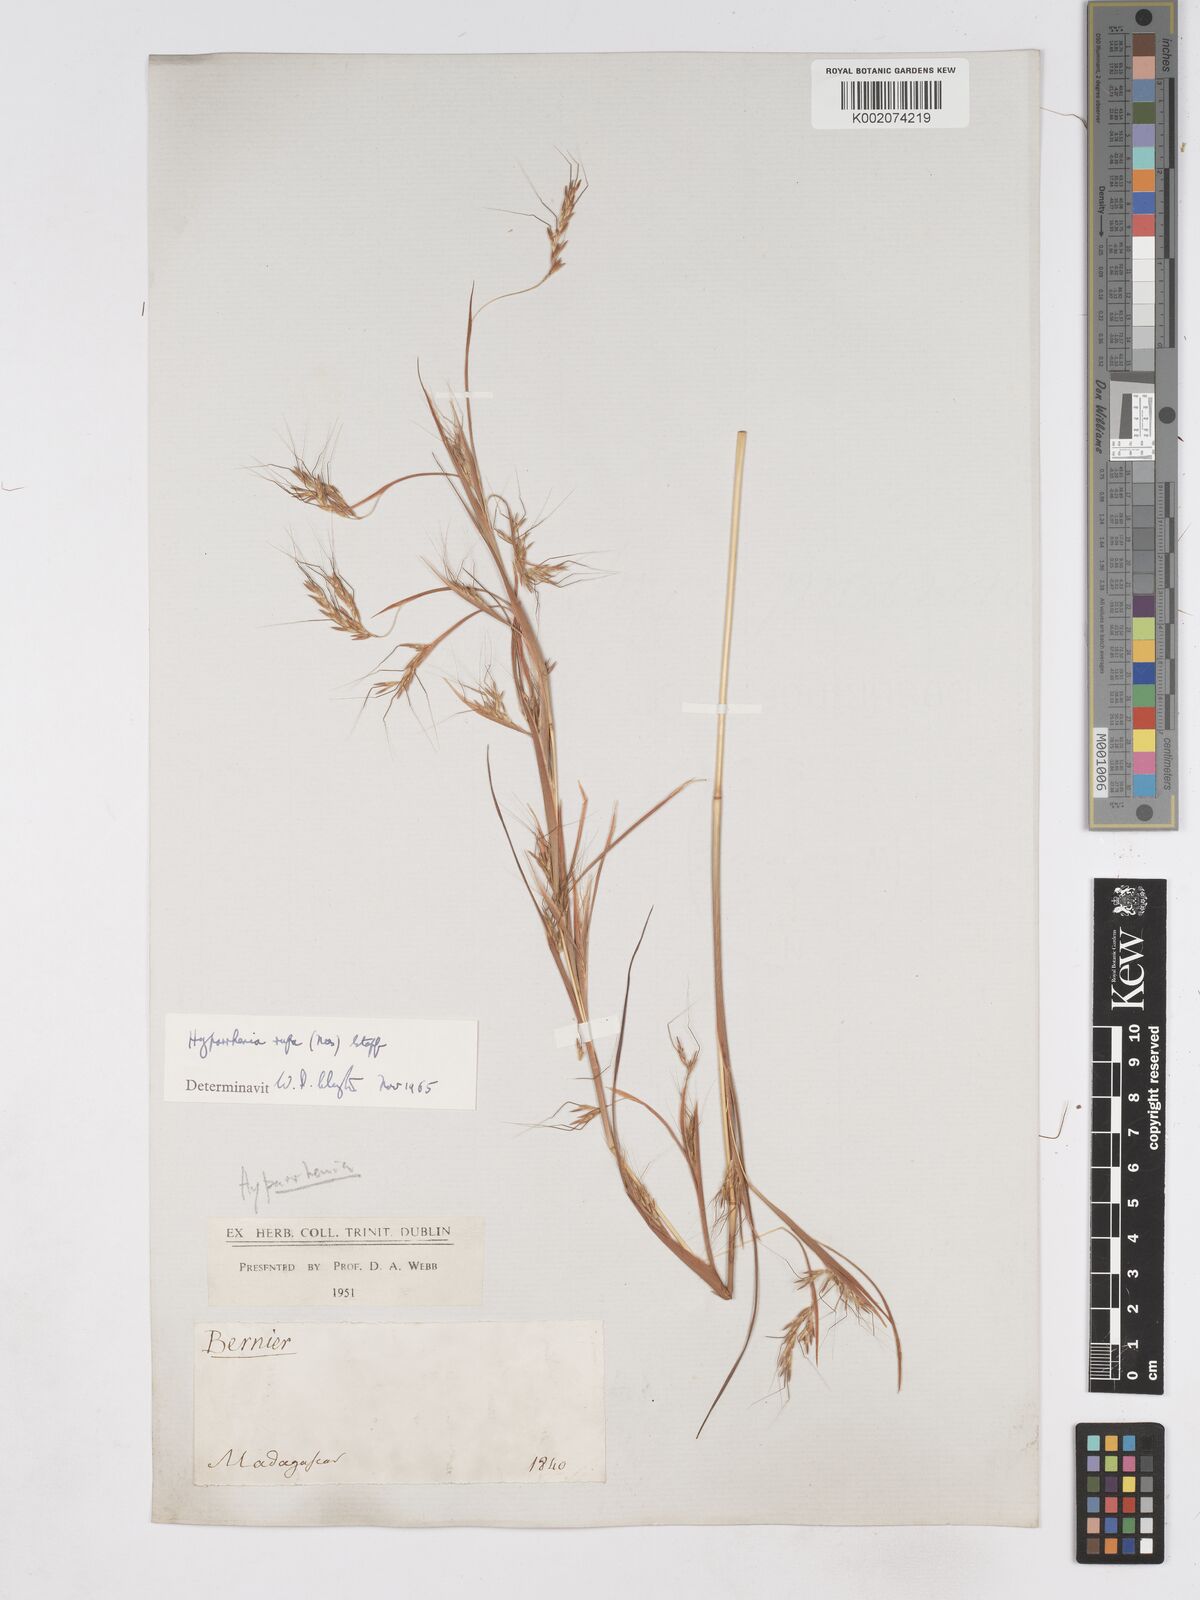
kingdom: Plantae
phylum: Tracheophyta
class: Liliopsida
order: Poales
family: Poaceae
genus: Hyparrhenia
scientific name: Hyparrhenia rufa
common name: Jaraguagrass
